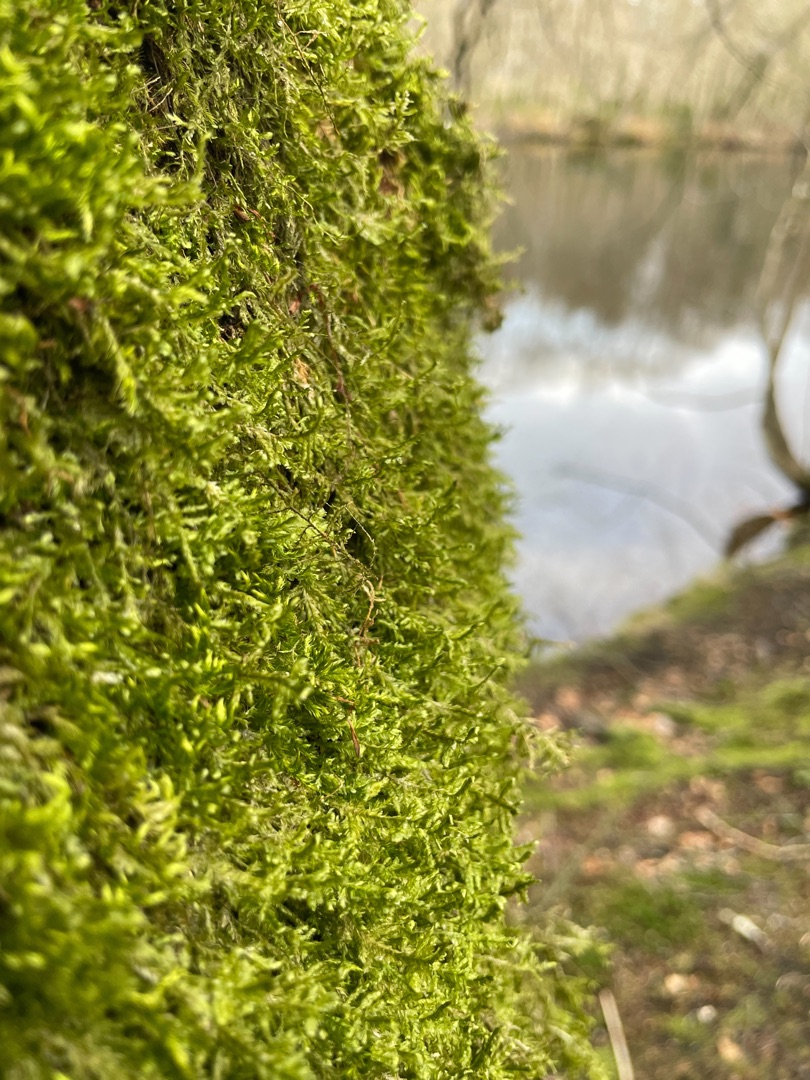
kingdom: Plantae
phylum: Bryophyta
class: Bryopsida
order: Hypnales
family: Neckeraceae
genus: Alleniella
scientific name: Alleniella complanata
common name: Almindelig fladmos
